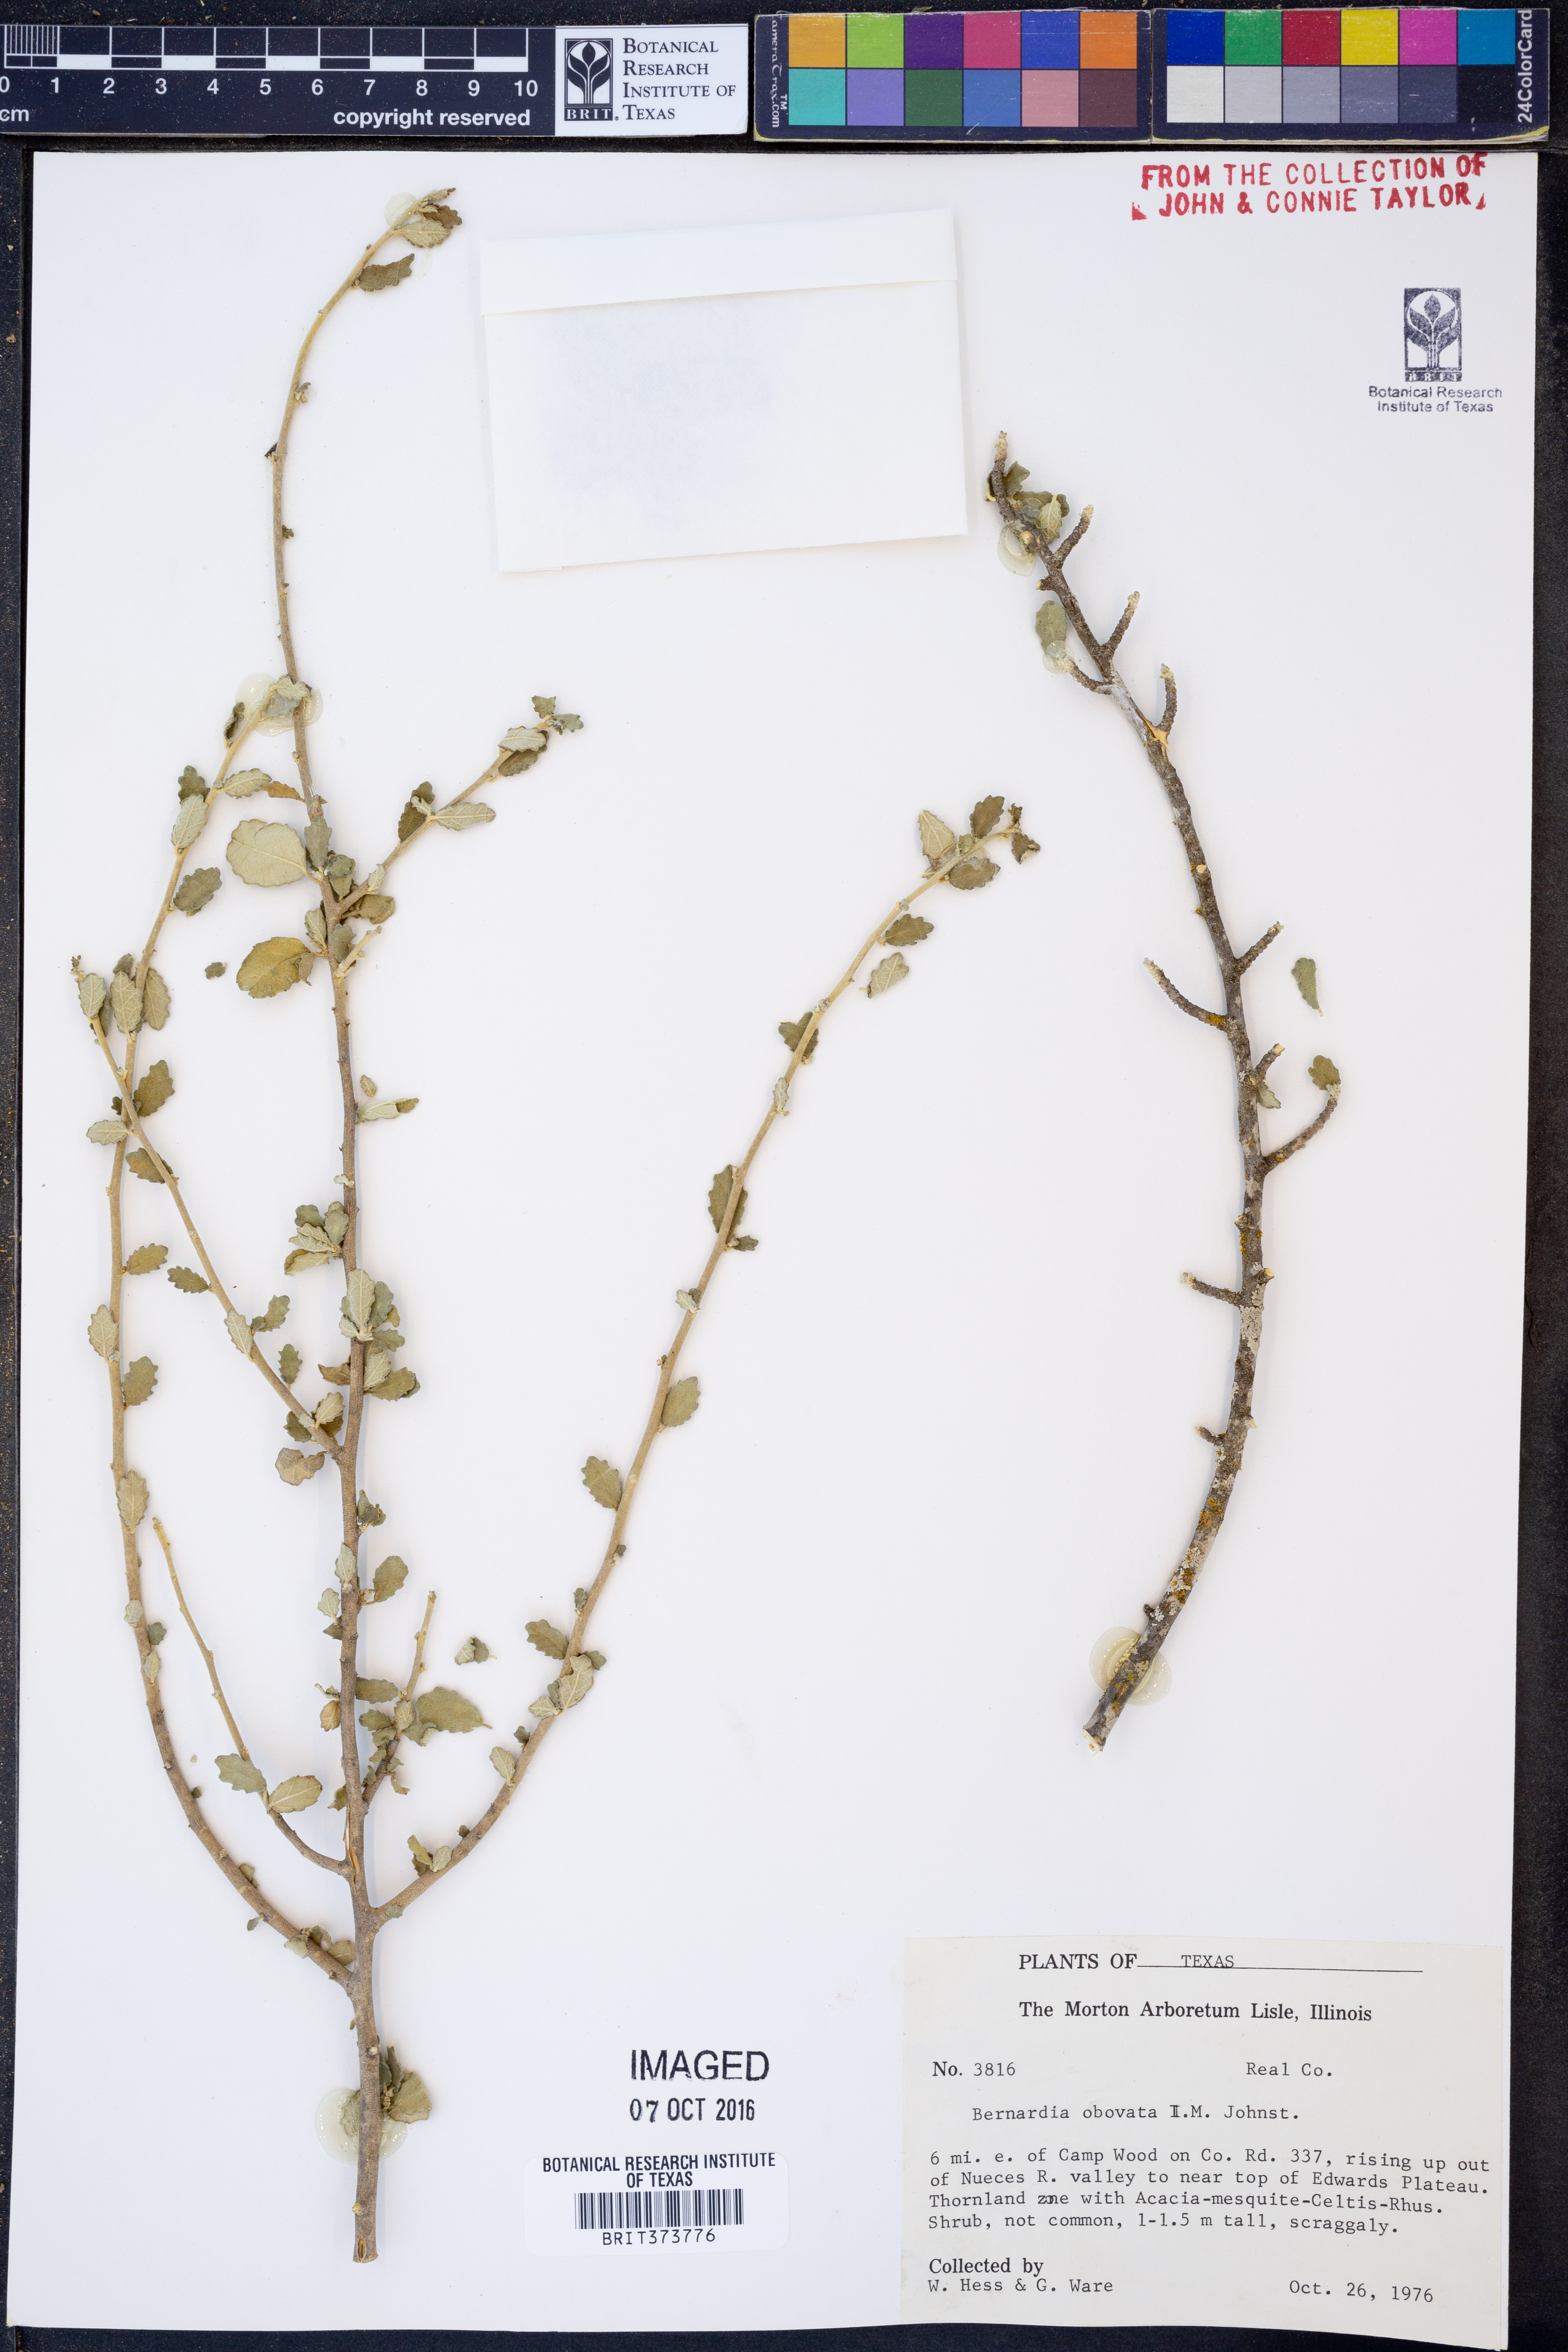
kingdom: Plantae
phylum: Tracheophyta
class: Magnoliopsida
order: Malpighiales
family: Euphorbiaceae
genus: Bernardia
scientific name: Bernardia obovata
